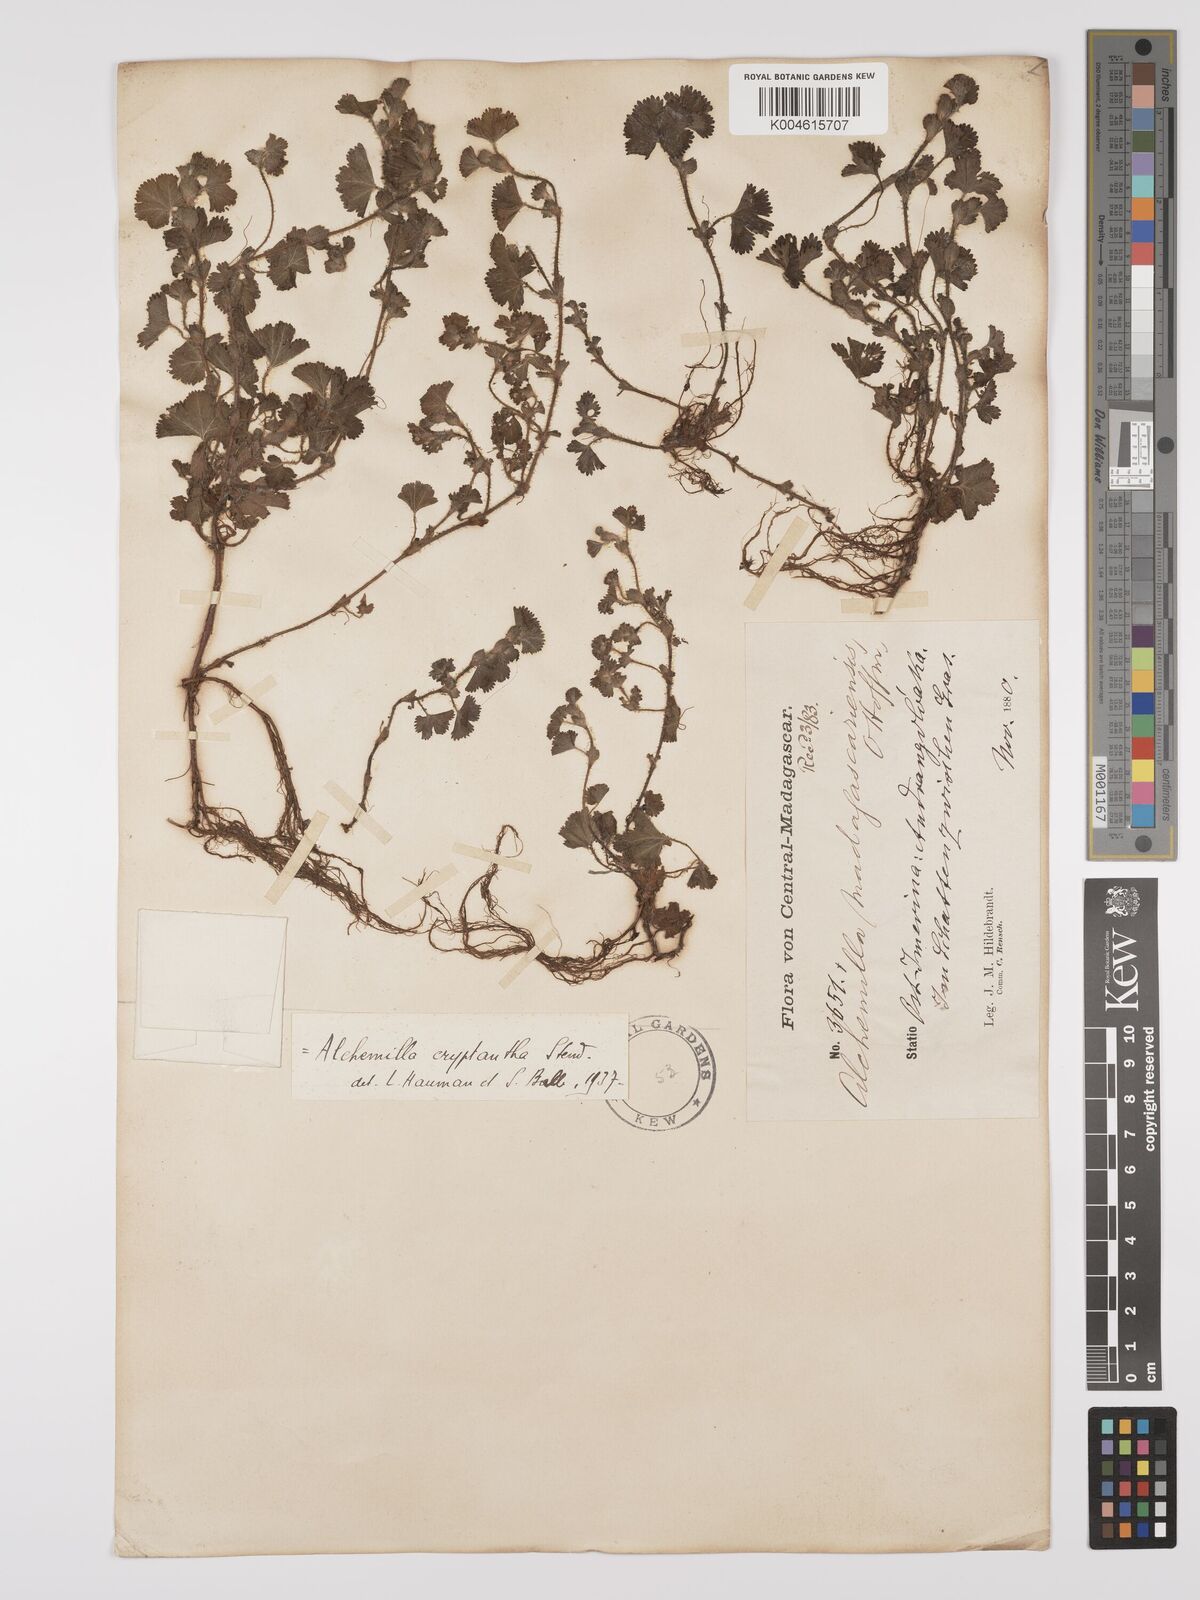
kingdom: Plantae
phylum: Tracheophyta
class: Magnoliopsida
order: Rosales
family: Rosaceae
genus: Alchemilla
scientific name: Alchemilla cryptantha
